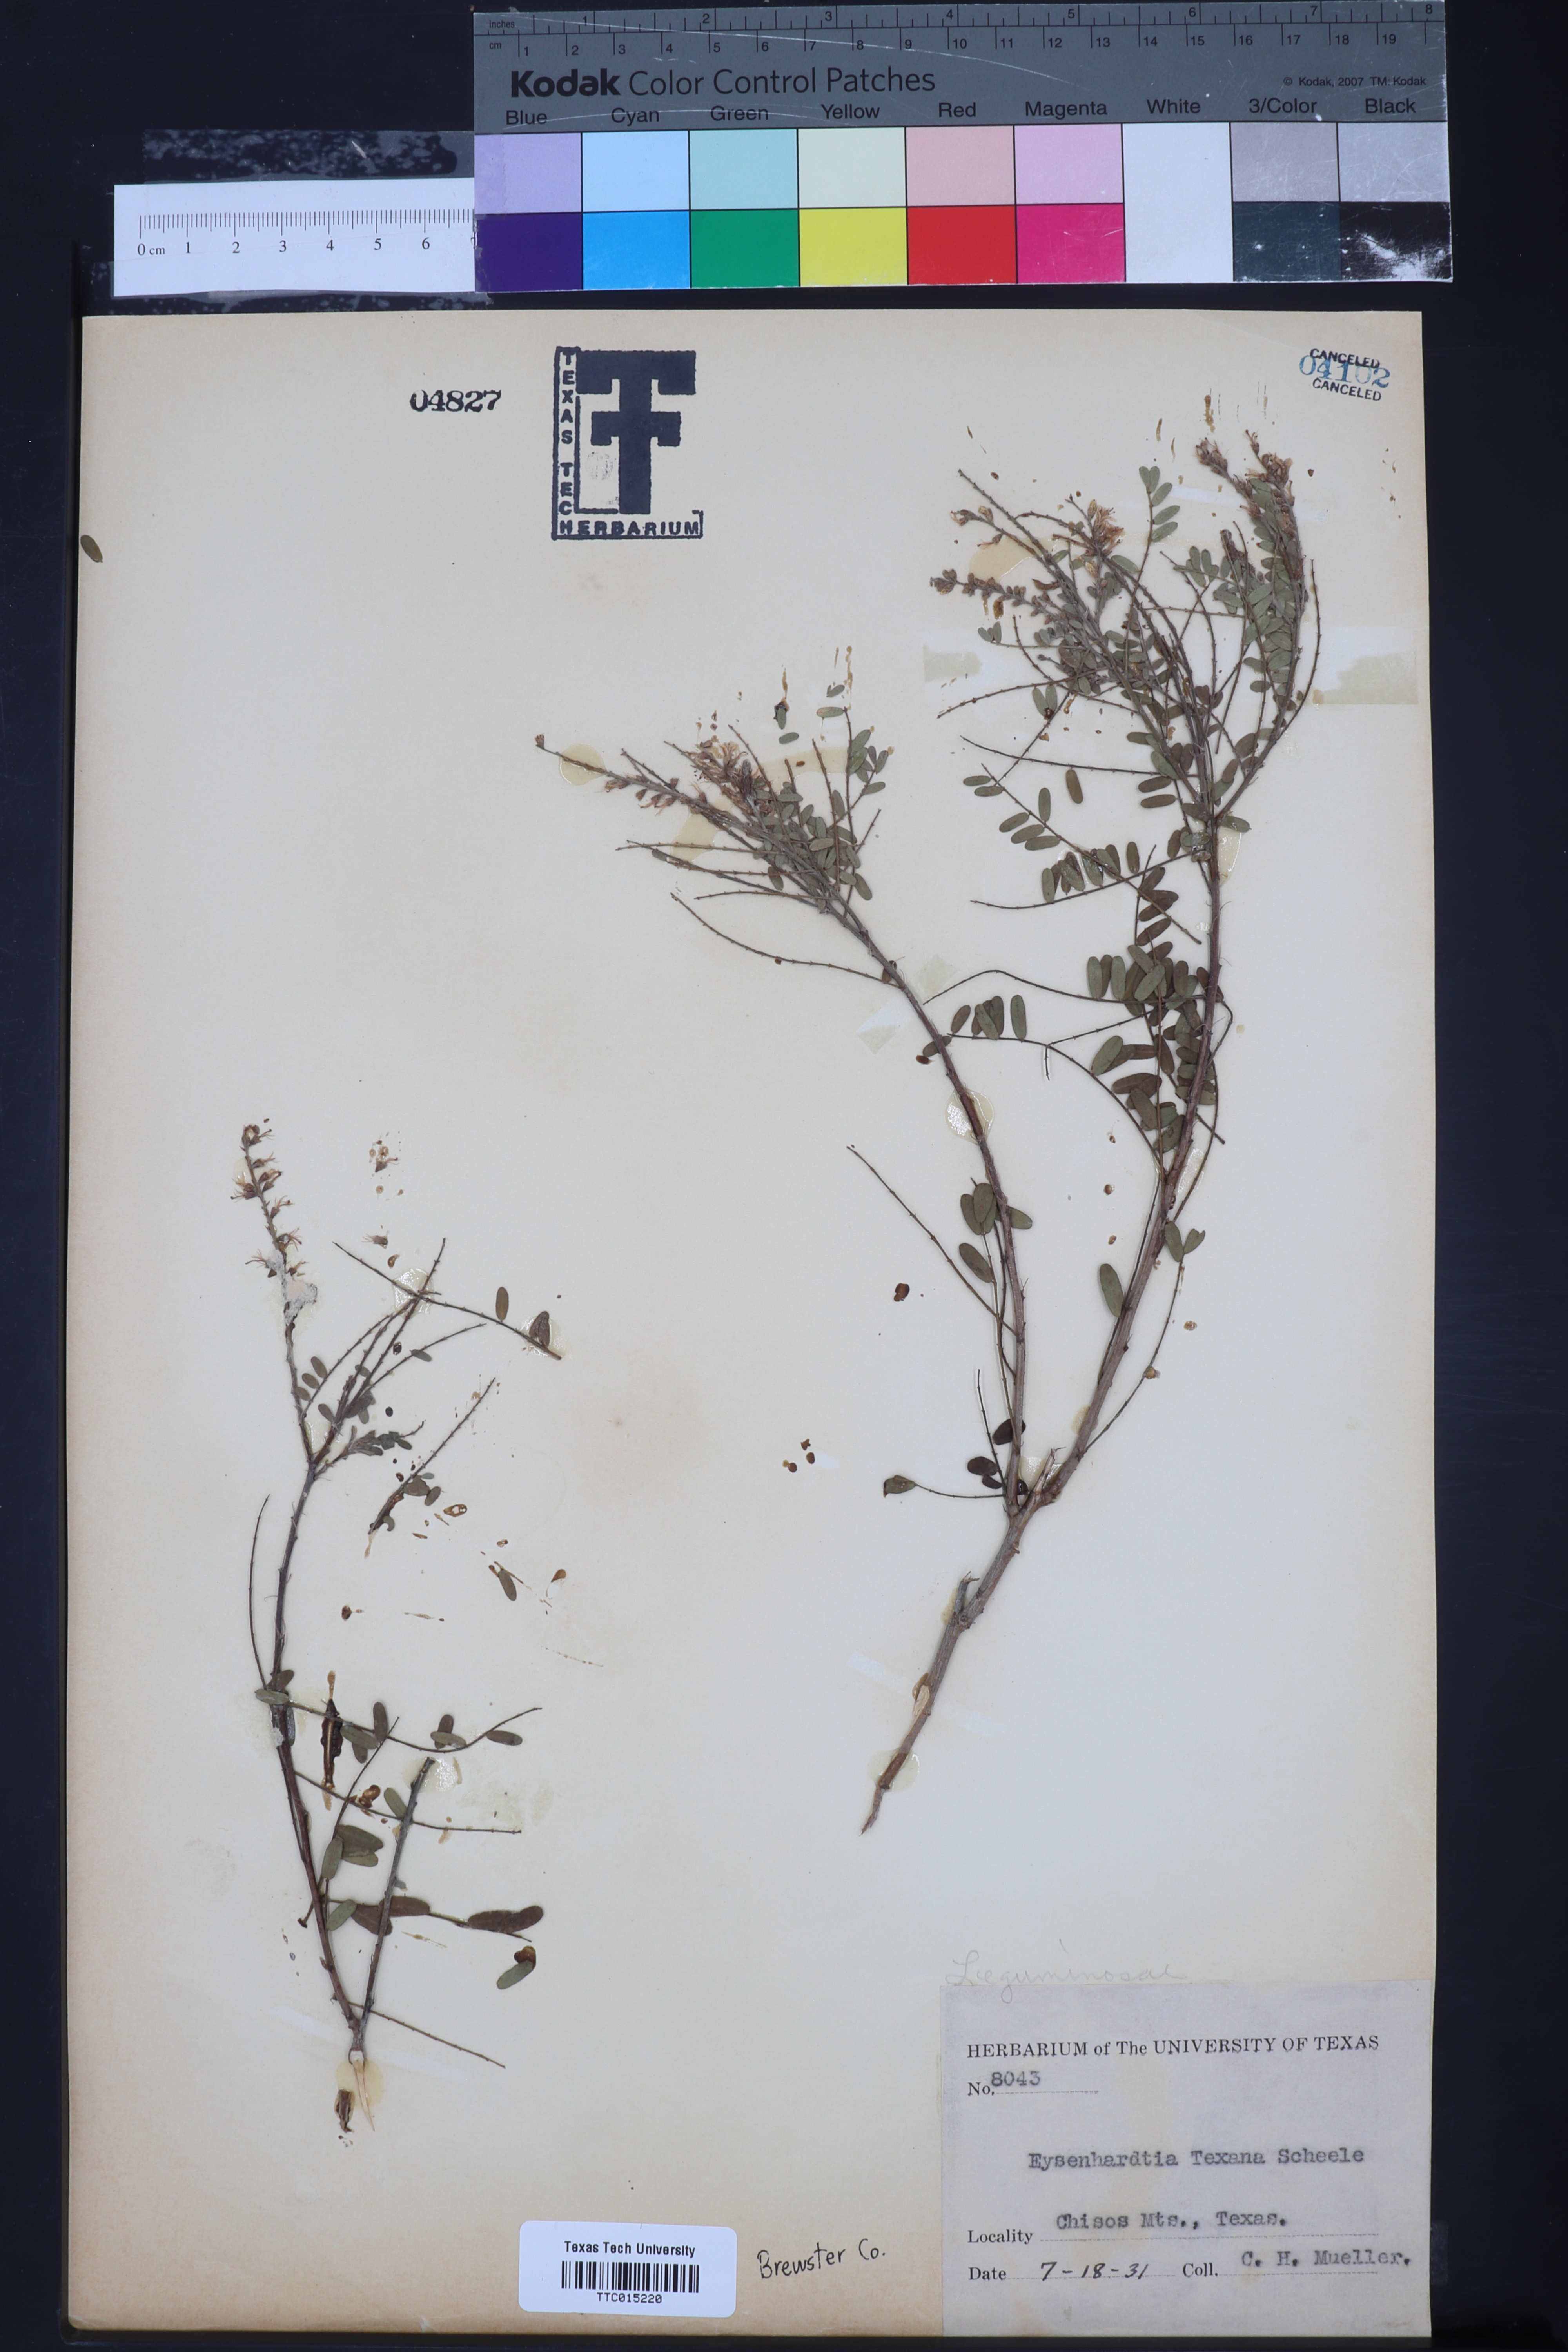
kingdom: Plantae
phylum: Tracheophyta
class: Magnoliopsida
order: Fabales
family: Fabaceae
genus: Eysenhardtia
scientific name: Eysenhardtia texana
